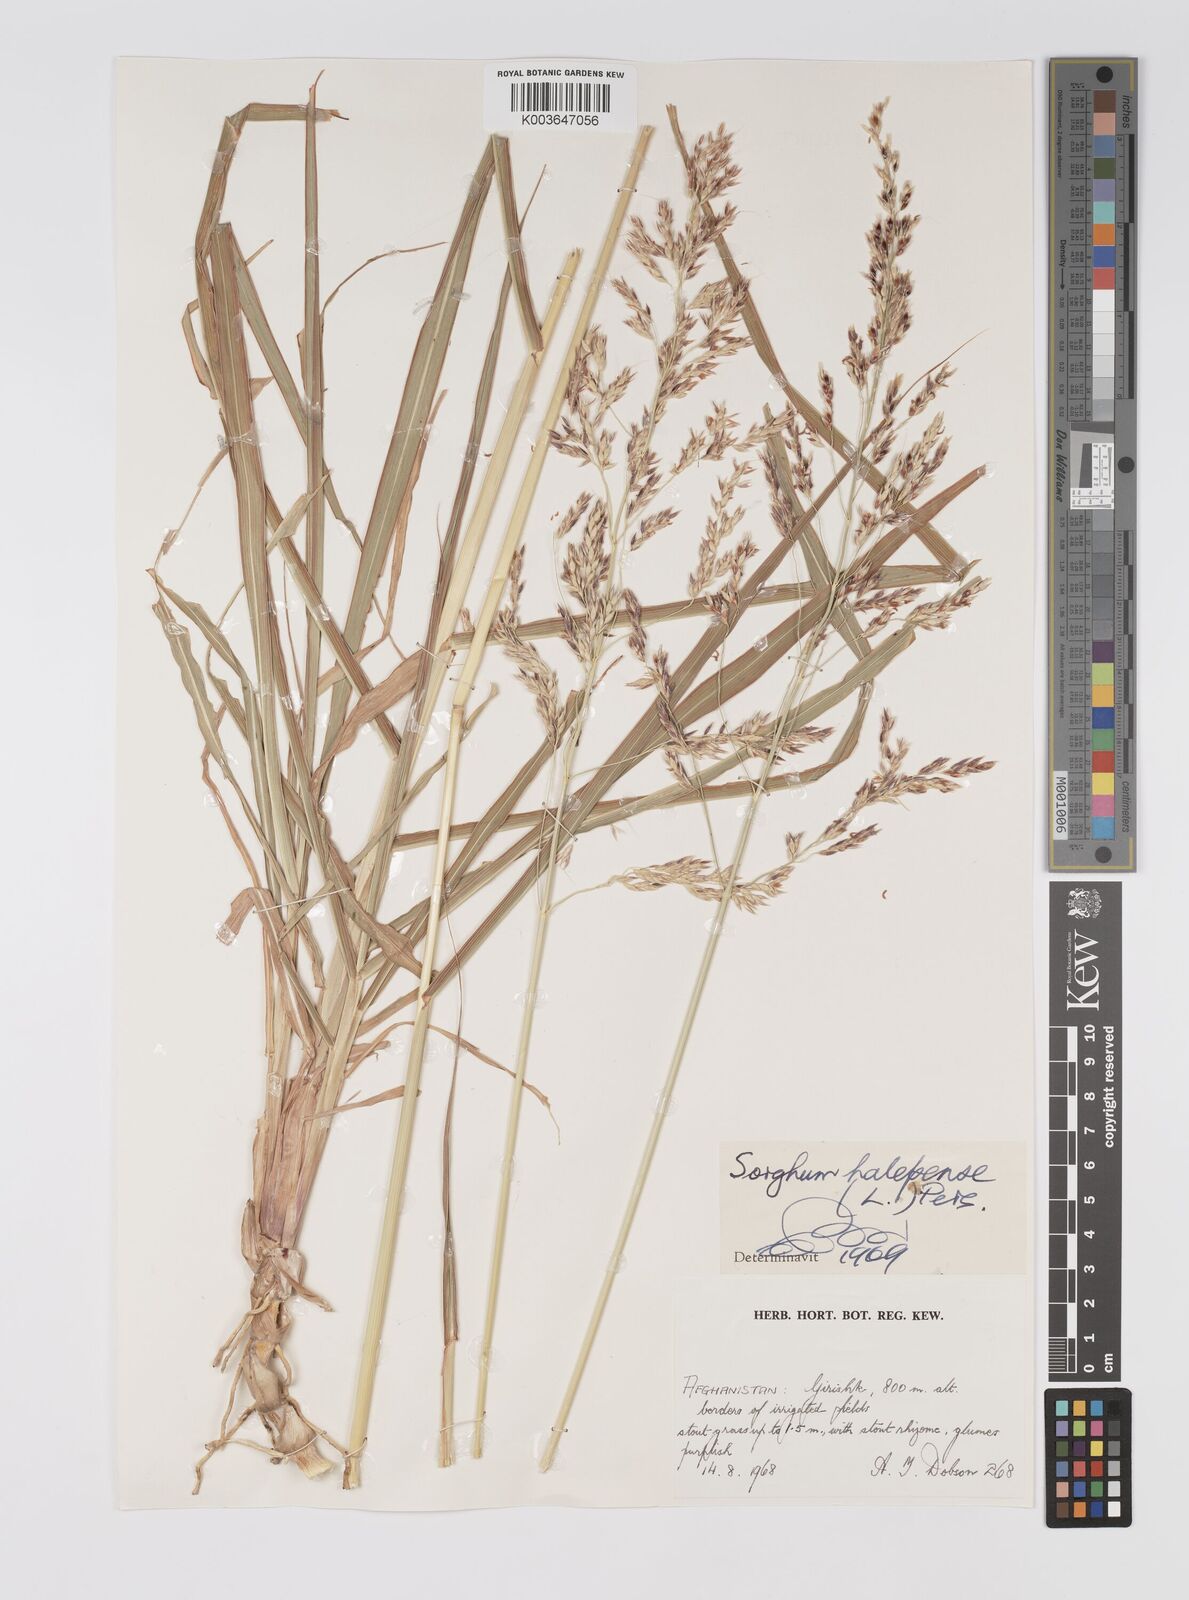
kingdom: Plantae
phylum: Tracheophyta
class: Liliopsida
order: Poales
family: Poaceae
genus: Sorghum
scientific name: Sorghum halepense
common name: Johnson-grass
